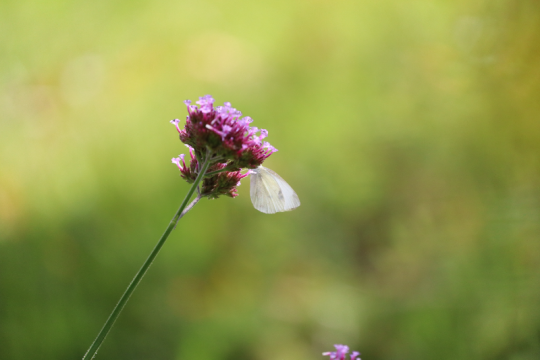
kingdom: Animalia
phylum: Arthropoda
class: Insecta
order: Lepidoptera
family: Pieridae
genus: Pieris
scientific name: Pieris rapae
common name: Cabbage White
